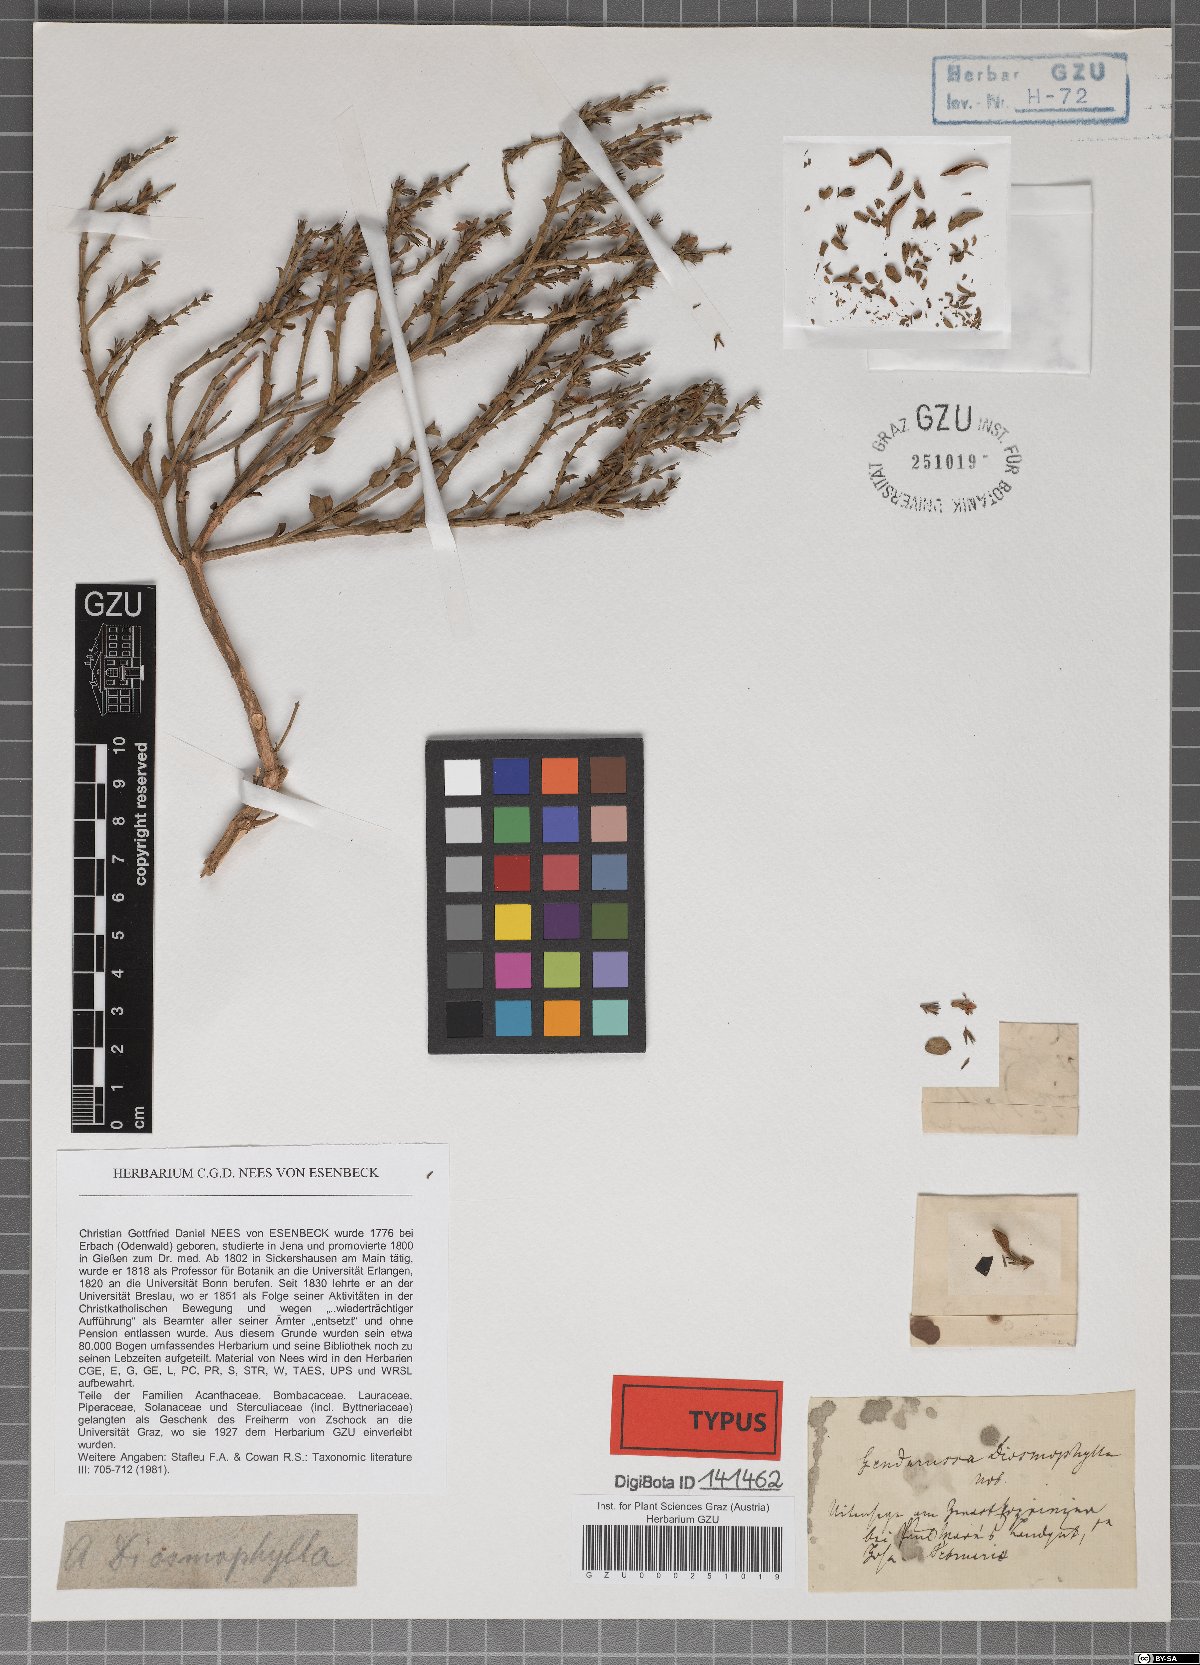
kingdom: Plantae
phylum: Tracheophyta
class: Magnoliopsida
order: Lamiales
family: Acanthaceae
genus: Justicia
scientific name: Justicia orchioides
